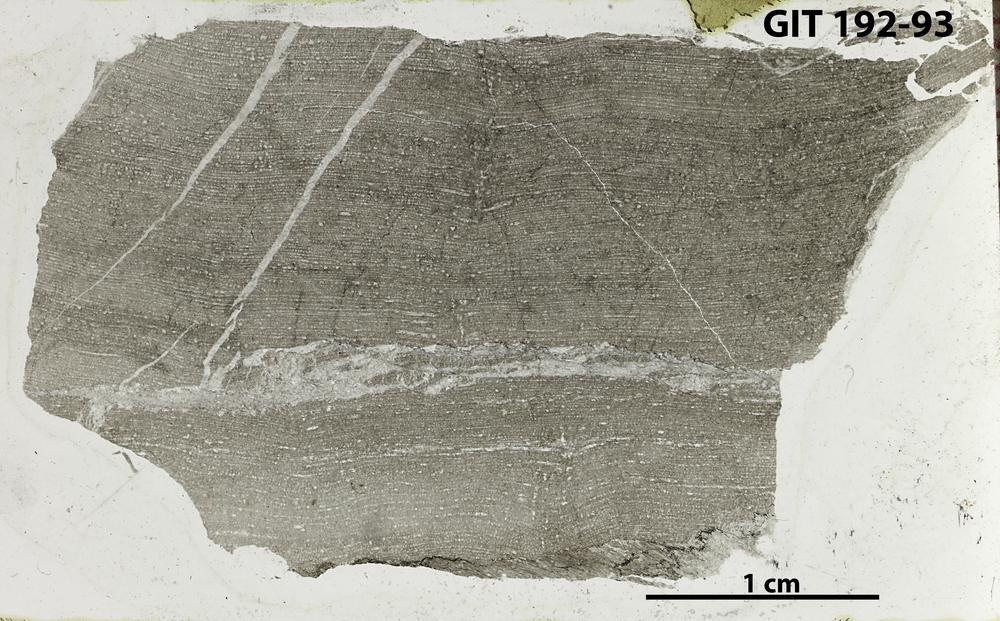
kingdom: Animalia
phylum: Porifera
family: Stromatoporidae
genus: Parallelostroma
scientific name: Parallelostroma
